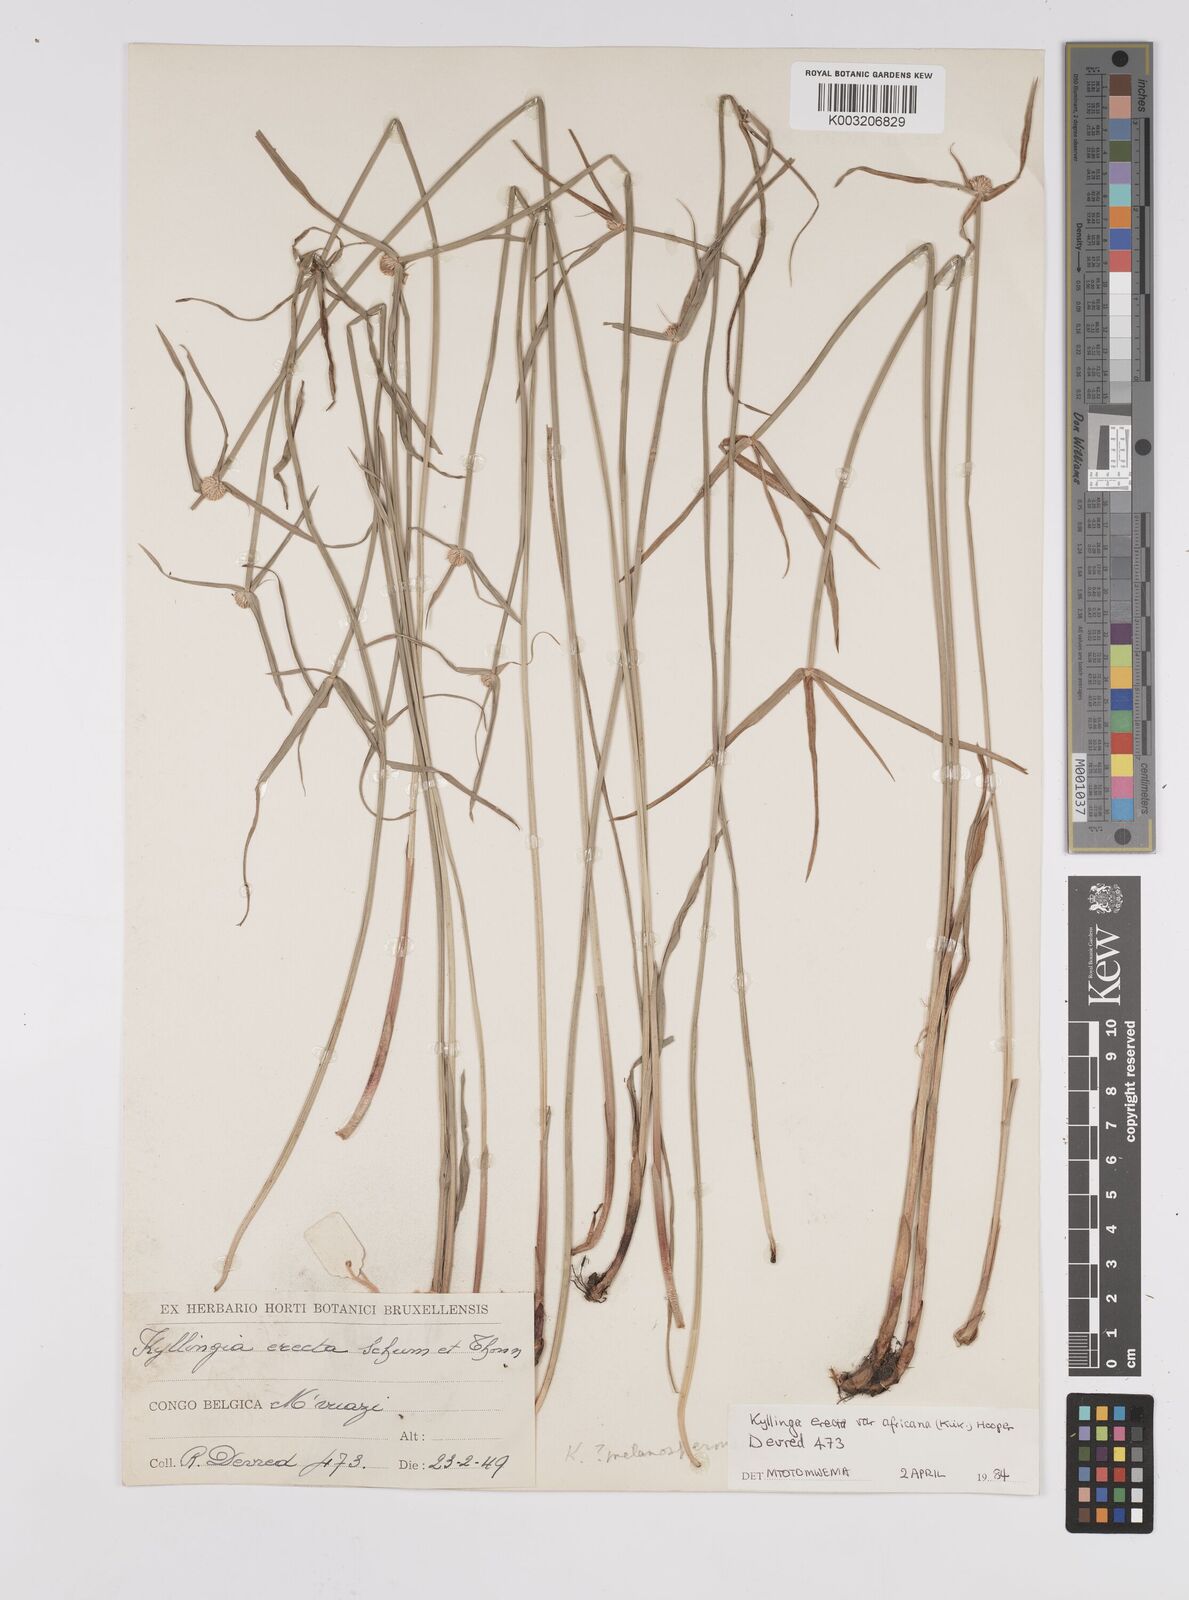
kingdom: Plantae
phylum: Tracheophyta
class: Liliopsida
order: Poales
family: Cyperaceae
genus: Cyperus
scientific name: Cyperus erectus
